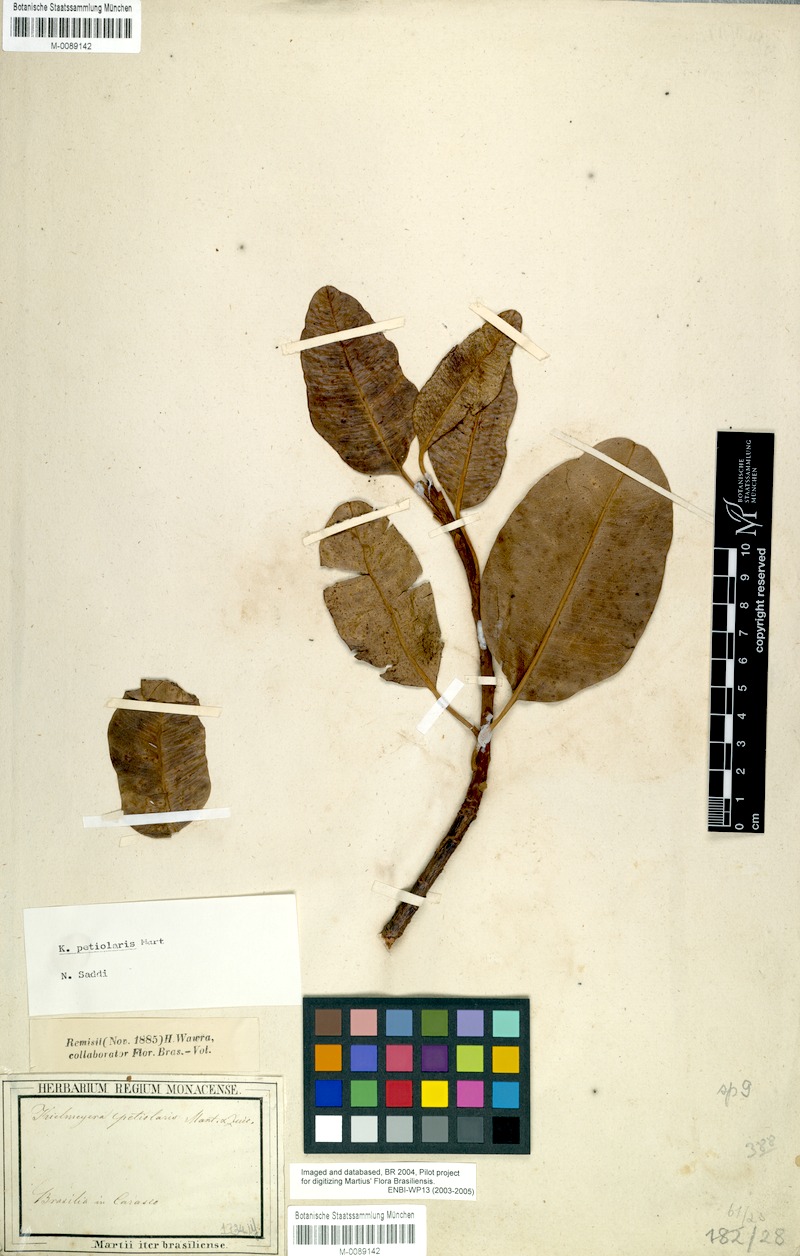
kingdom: Plantae
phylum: Tracheophyta
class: Magnoliopsida
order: Malpighiales
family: Calophyllaceae
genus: Kielmeyera
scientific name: Kielmeyera petiolaris
